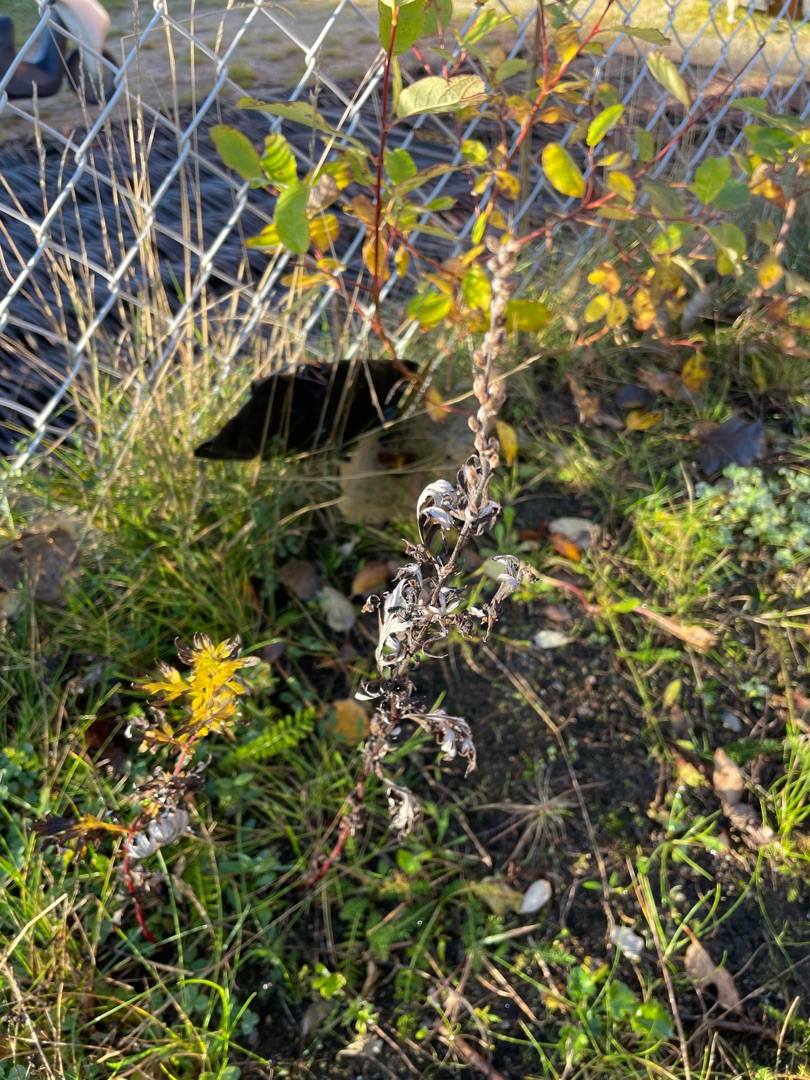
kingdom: Plantae
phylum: Tracheophyta
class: Magnoliopsida
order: Asterales
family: Asteraceae
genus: Artemisia
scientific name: Artemisia vulgaris
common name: Grå-bynke
